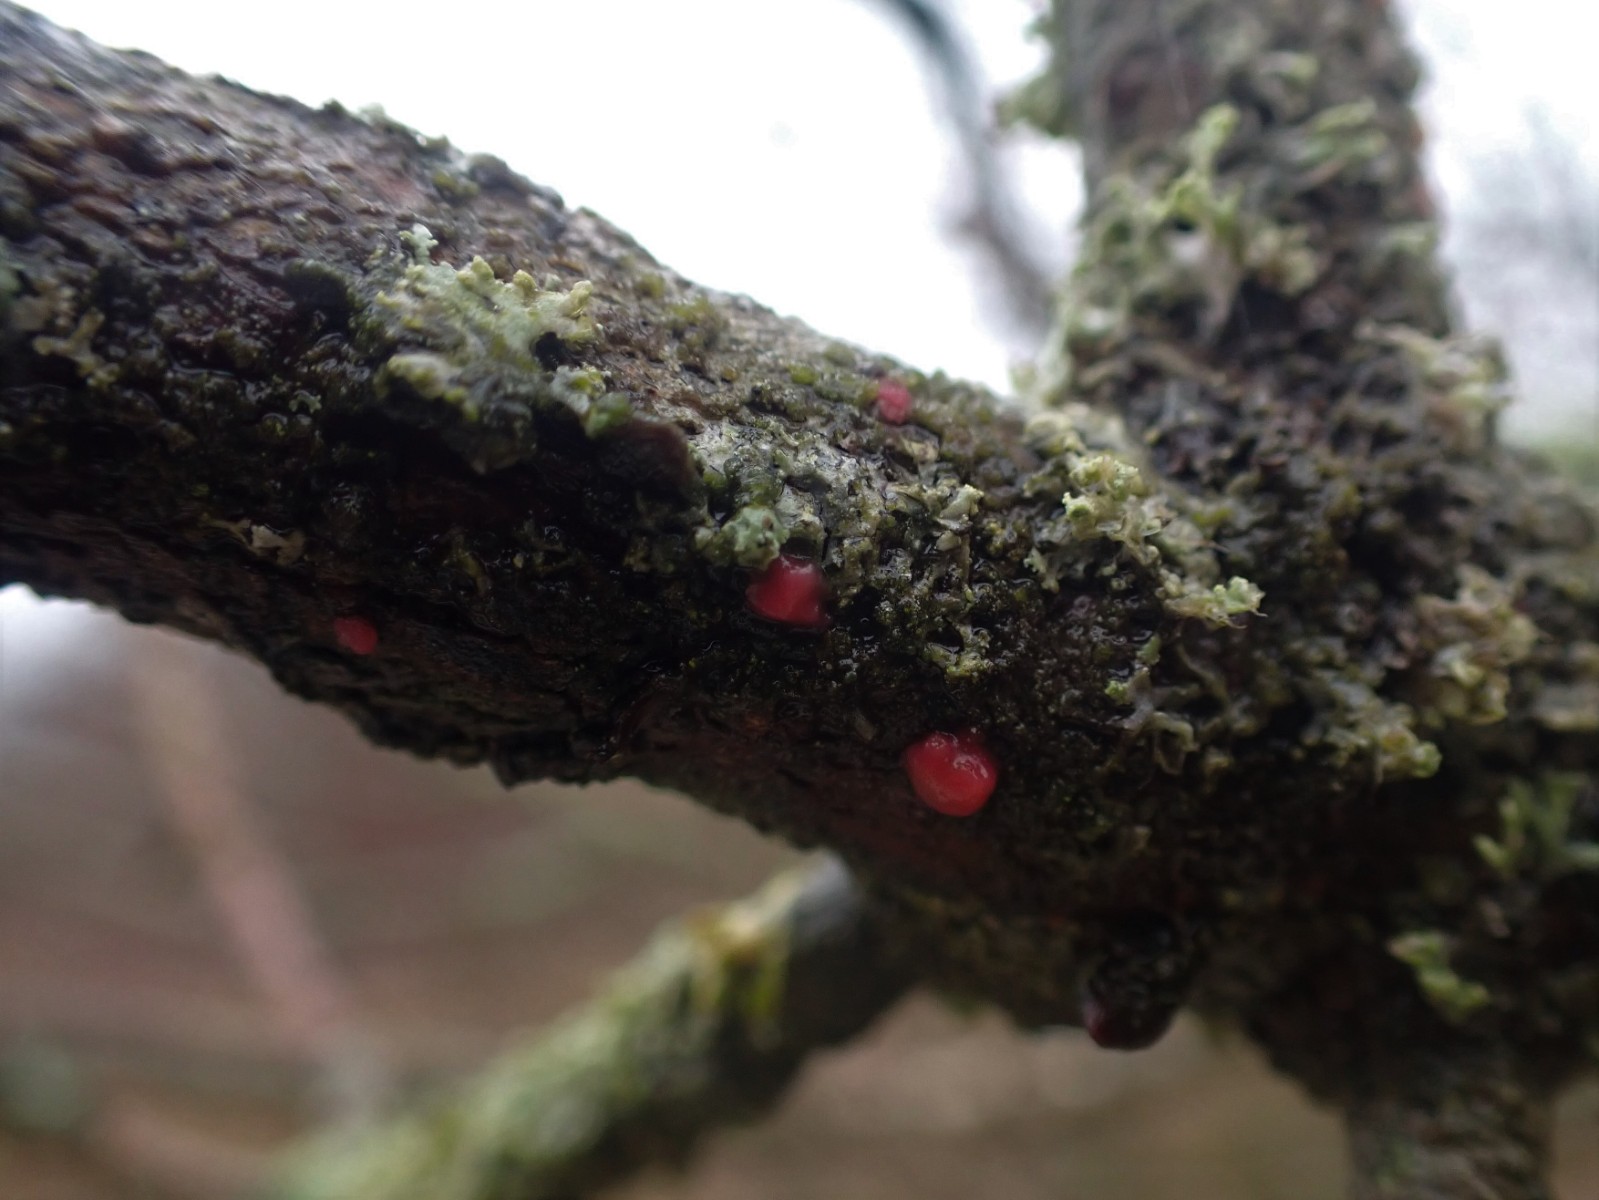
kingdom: Fungi
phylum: Ascomycota
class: Sordariomycetes
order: Hypocreales
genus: Illosporiopsis
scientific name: Illosporiopsis christiansenii
